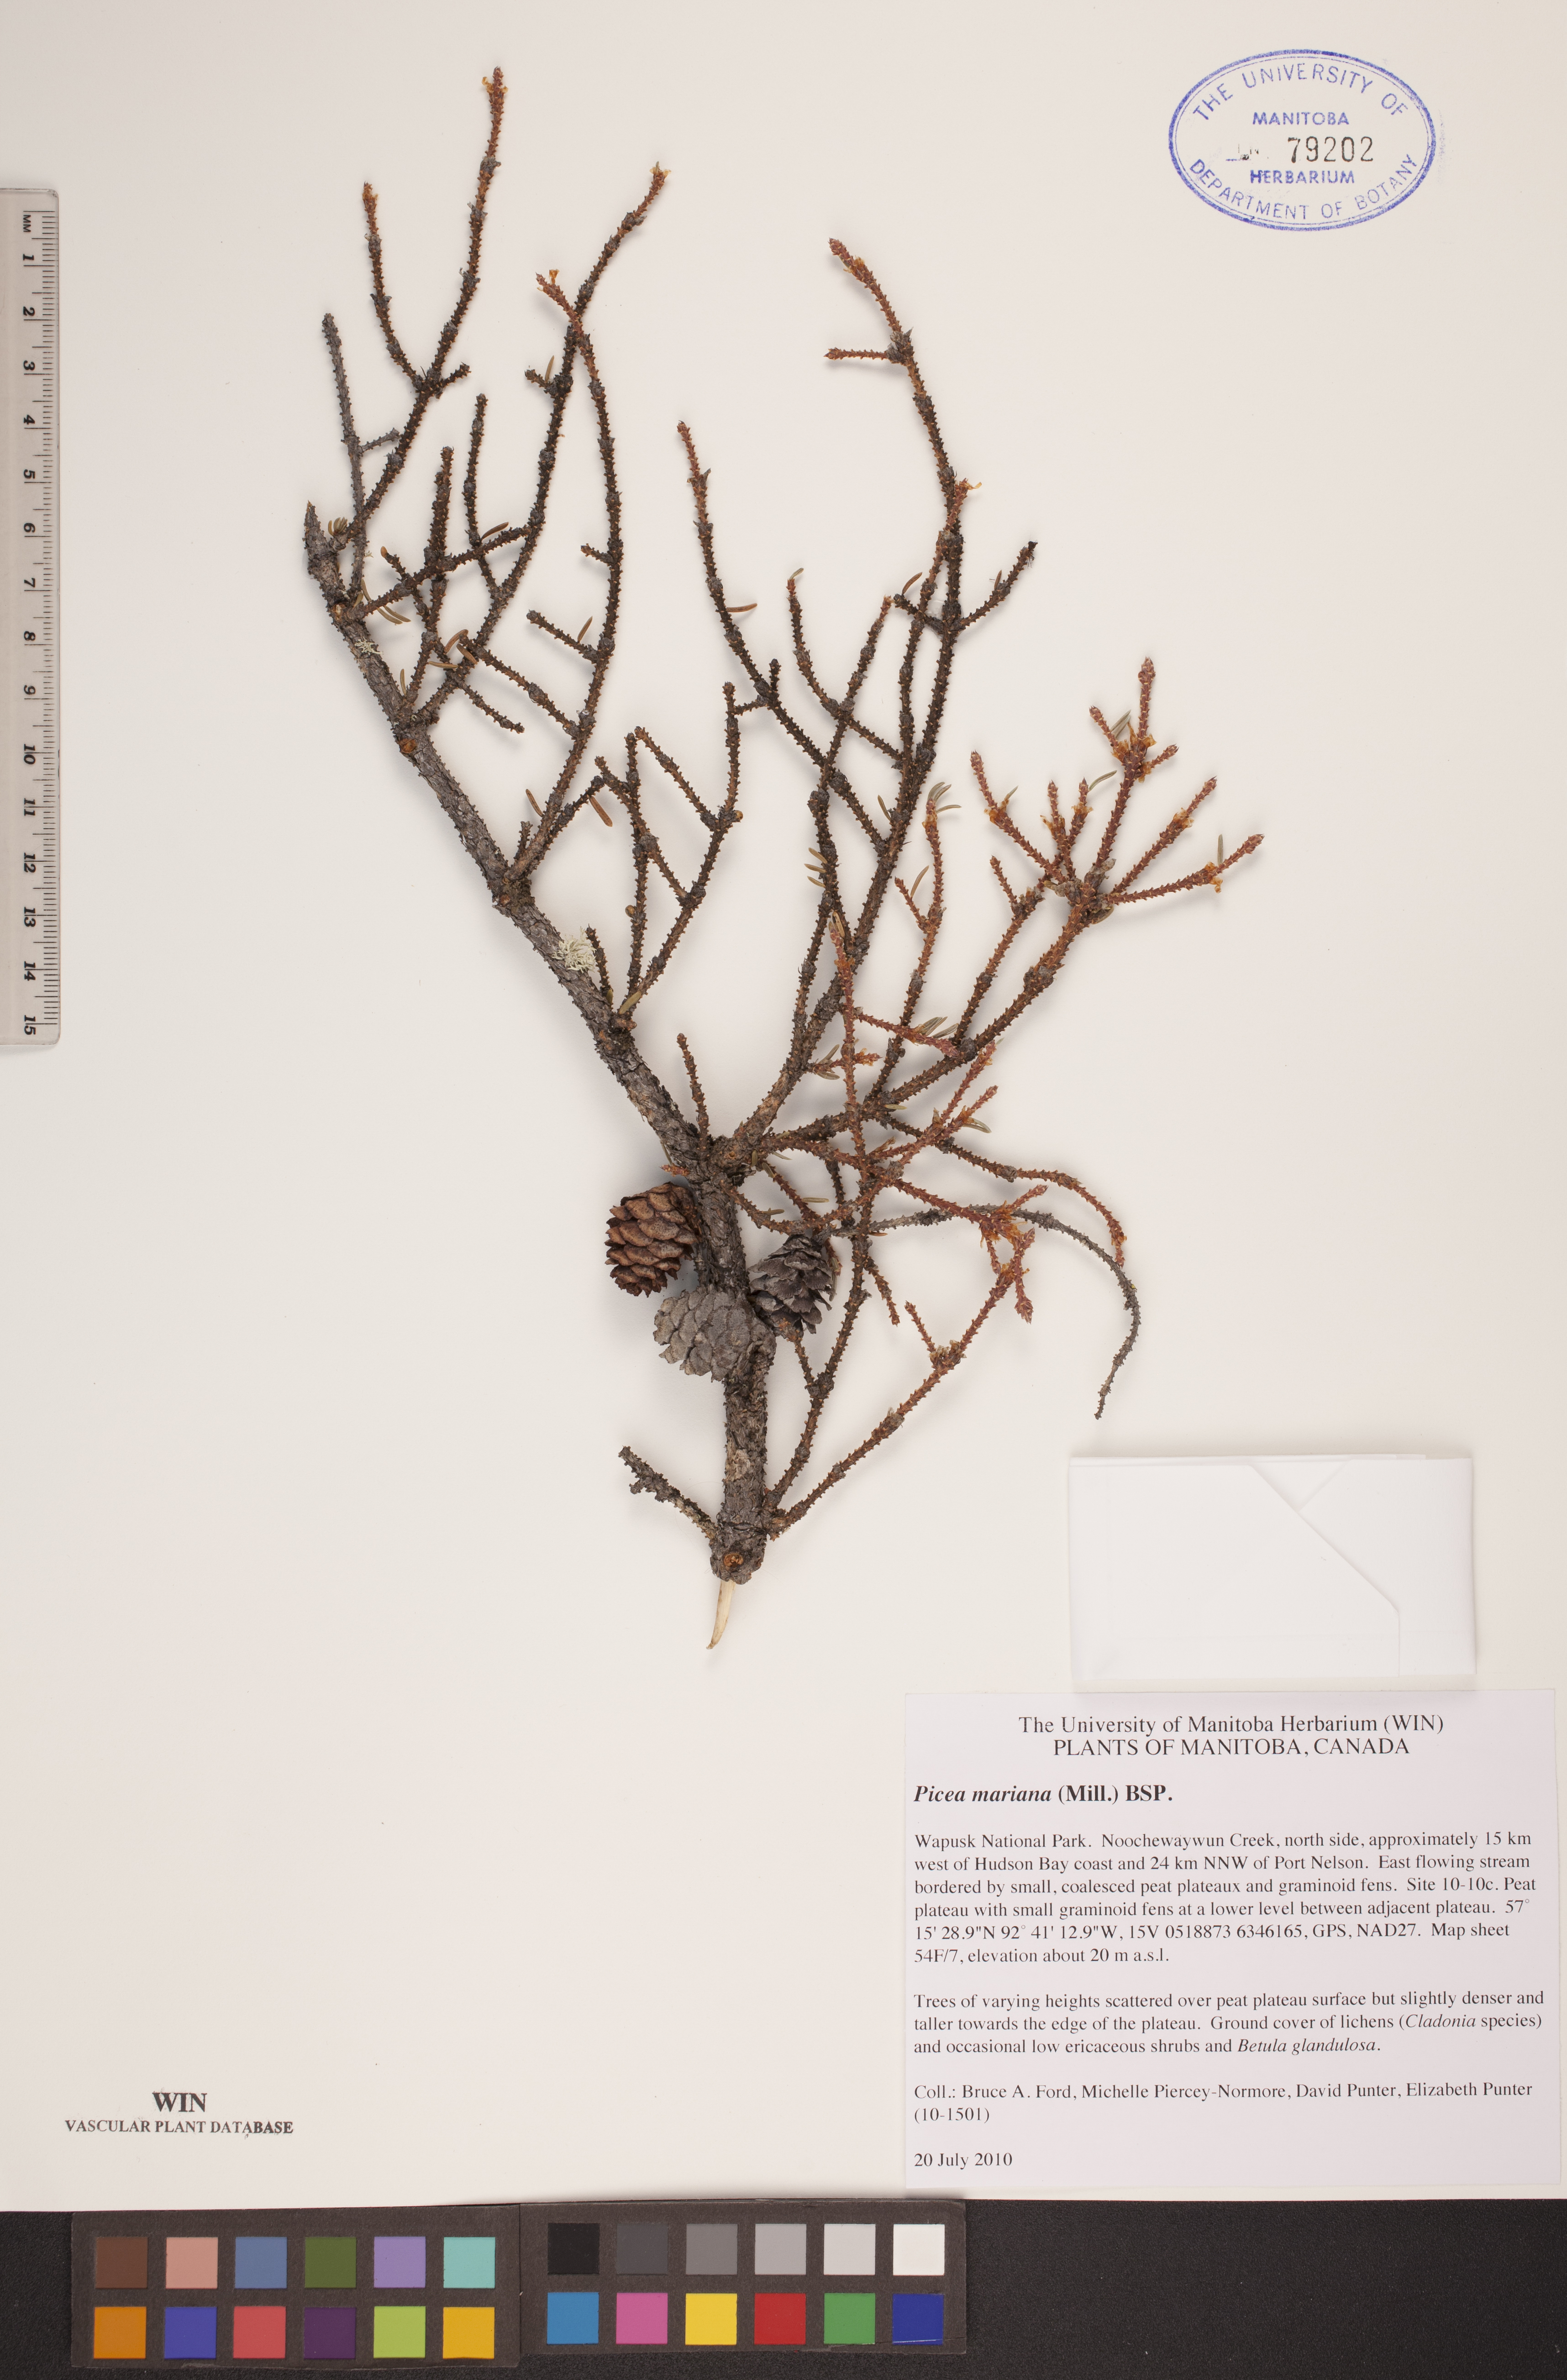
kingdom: Plantae
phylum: Tracheophyta
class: Pinopsida
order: Pinales
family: Pinaceae
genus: Picea
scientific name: Picea mariana
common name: Black spruce
